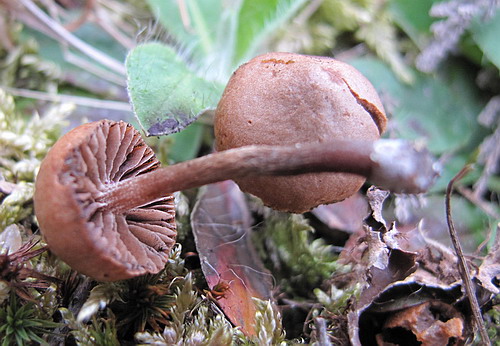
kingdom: Fungi
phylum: Basidiomycota
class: Agaricomycetes
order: Agaricales
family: Strophariaceae
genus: Deconica
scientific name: Deconica montana
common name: rødbrun stråhat
